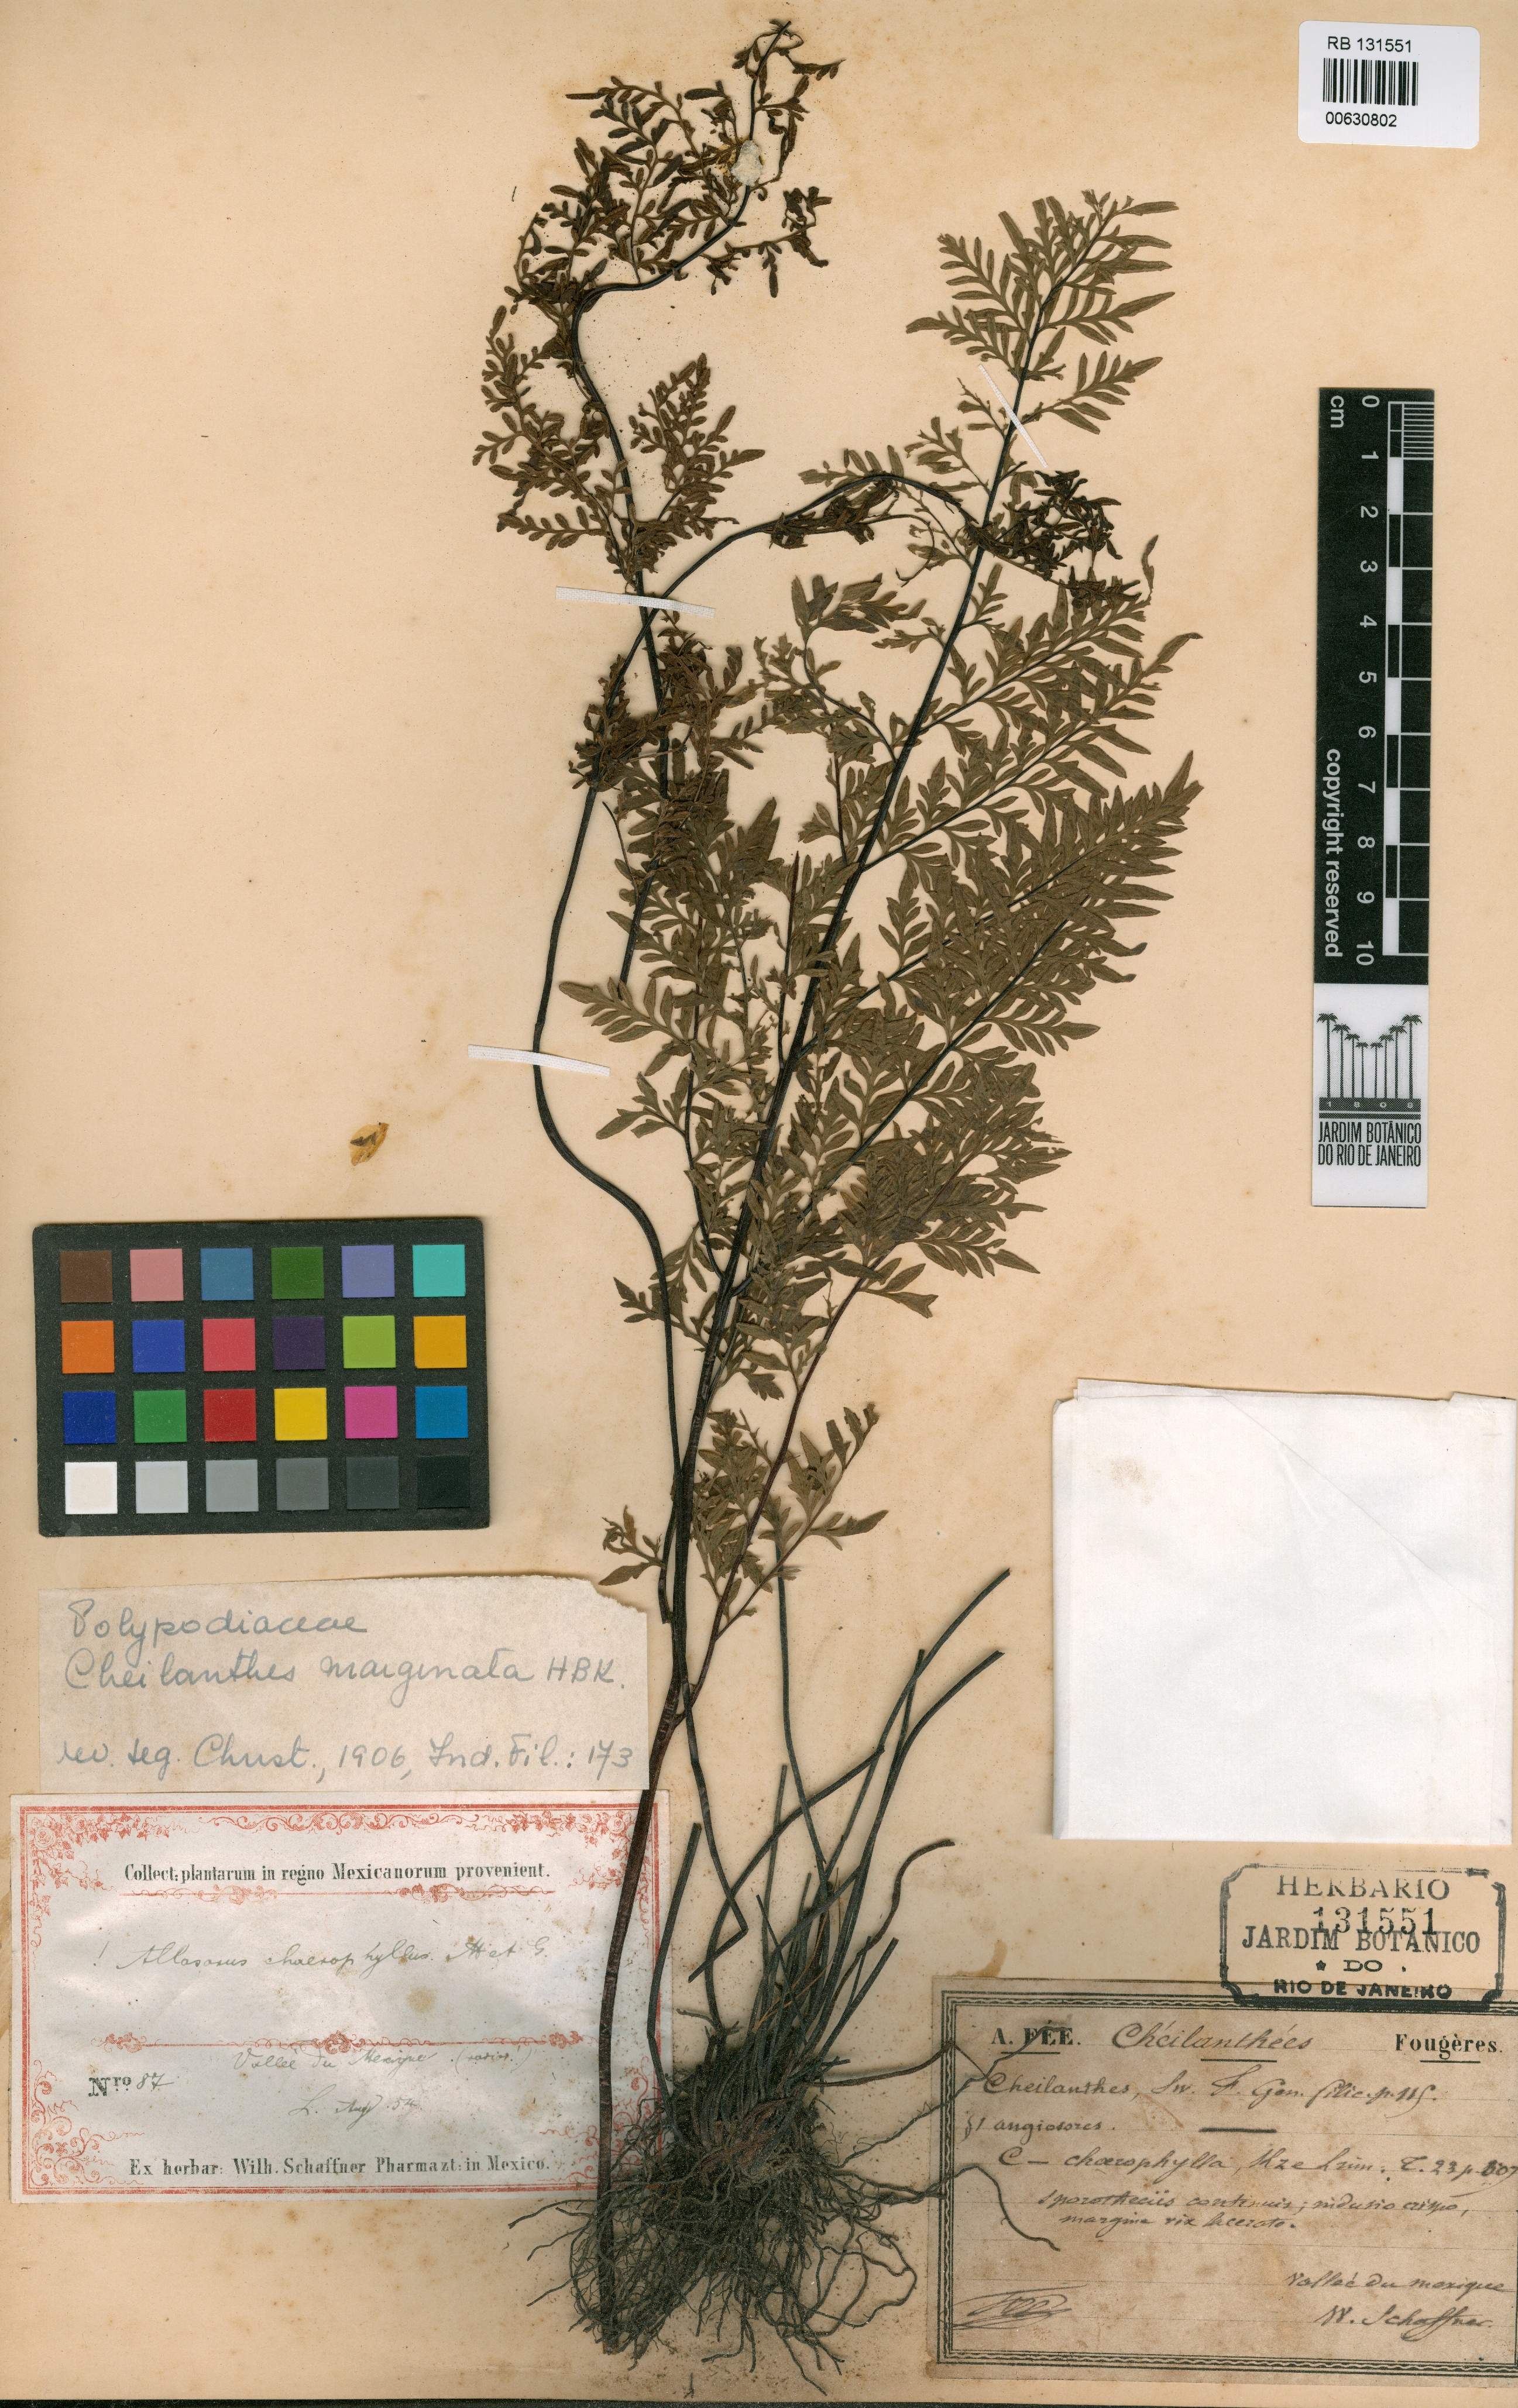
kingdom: Plantae
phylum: Tracheophyta
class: Polypodiopsida
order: Polypodiales
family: Pteridaceae
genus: Gaga
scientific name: Gaga marginata
